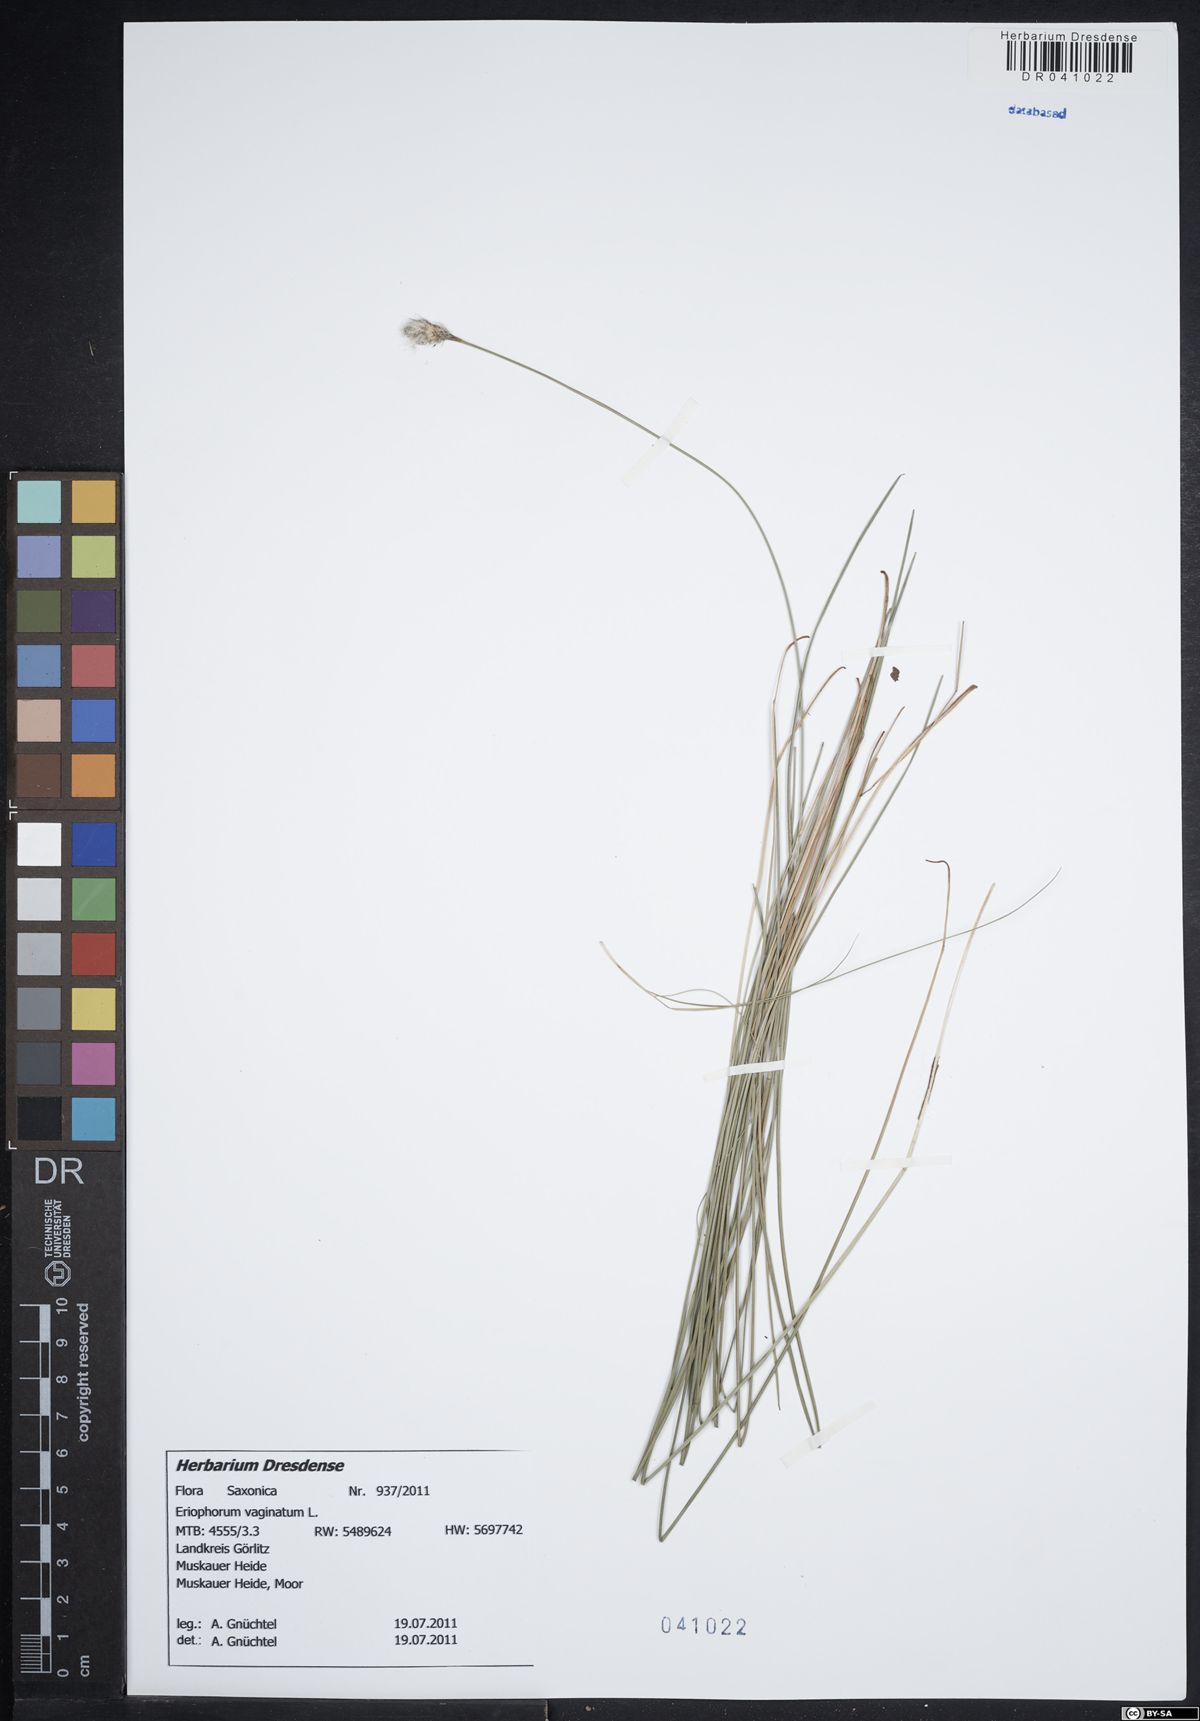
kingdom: Plantae
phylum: Tracheophyta
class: Liliopsida
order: Poales
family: Cyperaceae
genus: Eriophorum
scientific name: Eriophorum vaginatum
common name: Hare's-tail cottongrass
